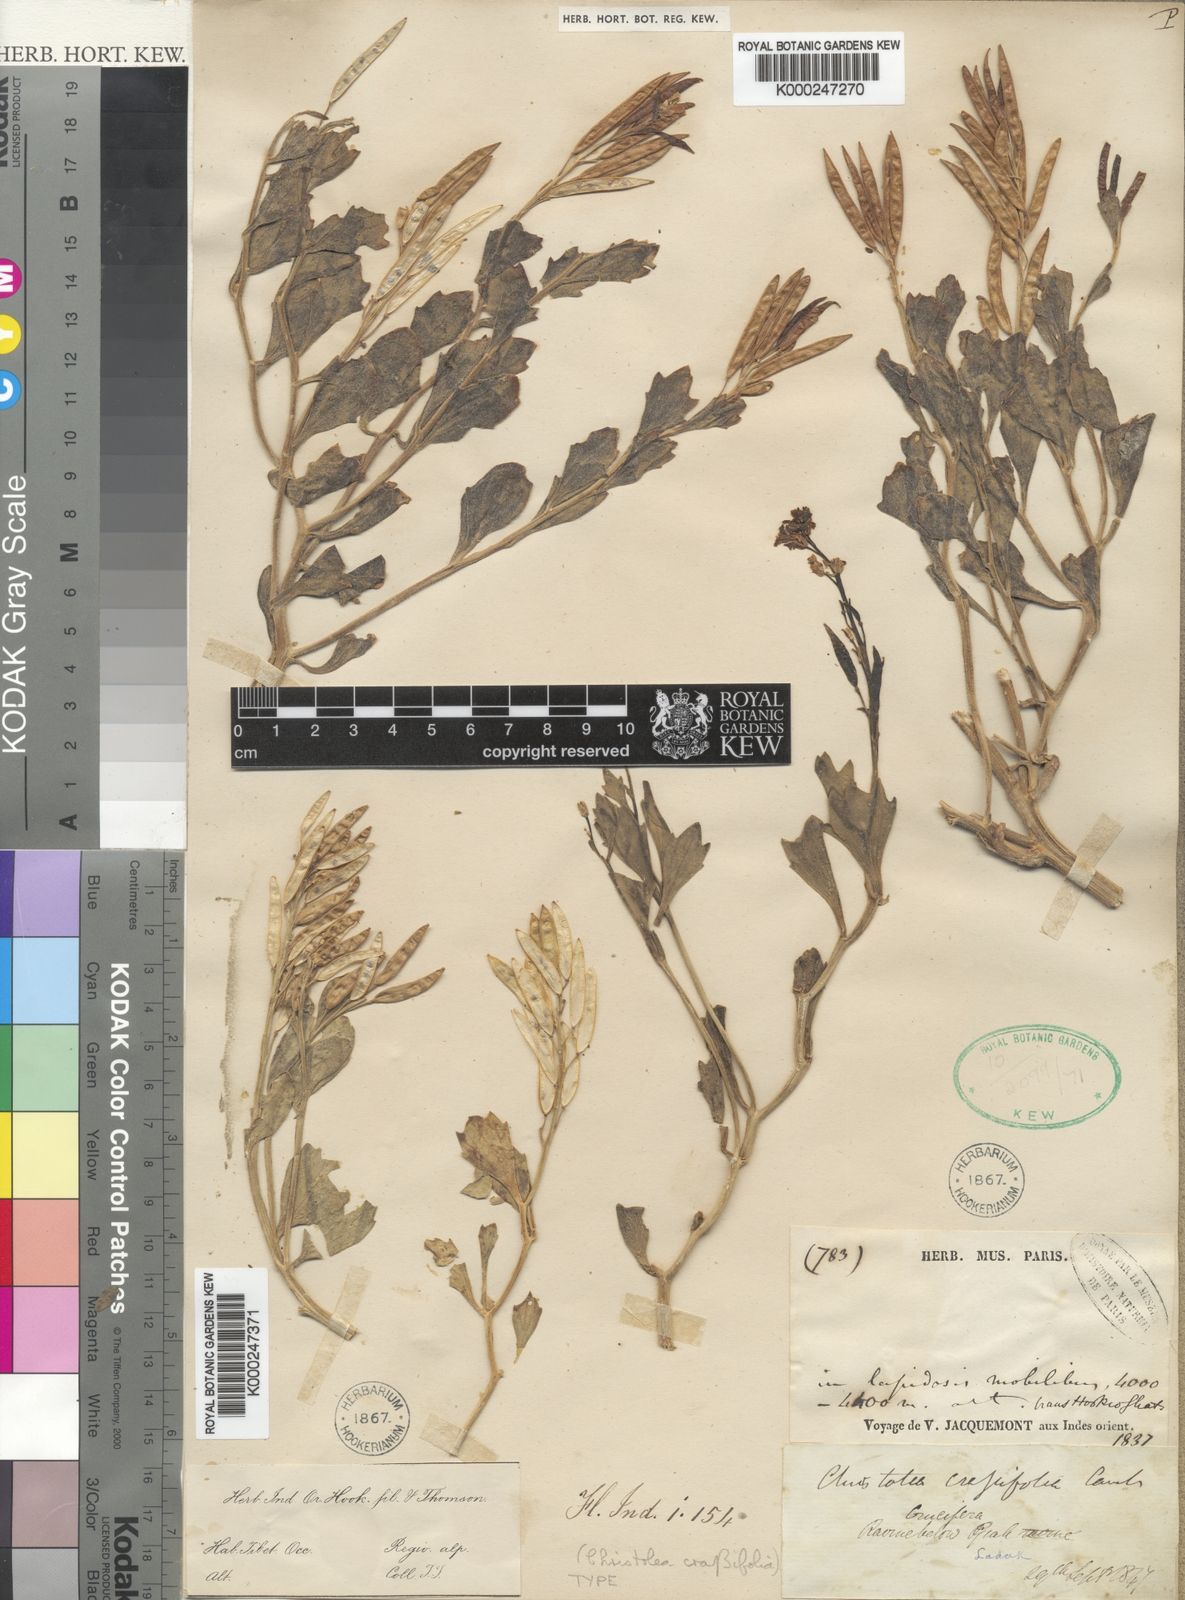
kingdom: Plantae
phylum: Tracheophyta
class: Magnoliopsida
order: Brassicales
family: Brassicaceae
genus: Christolea
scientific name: Christolea crassifolia
